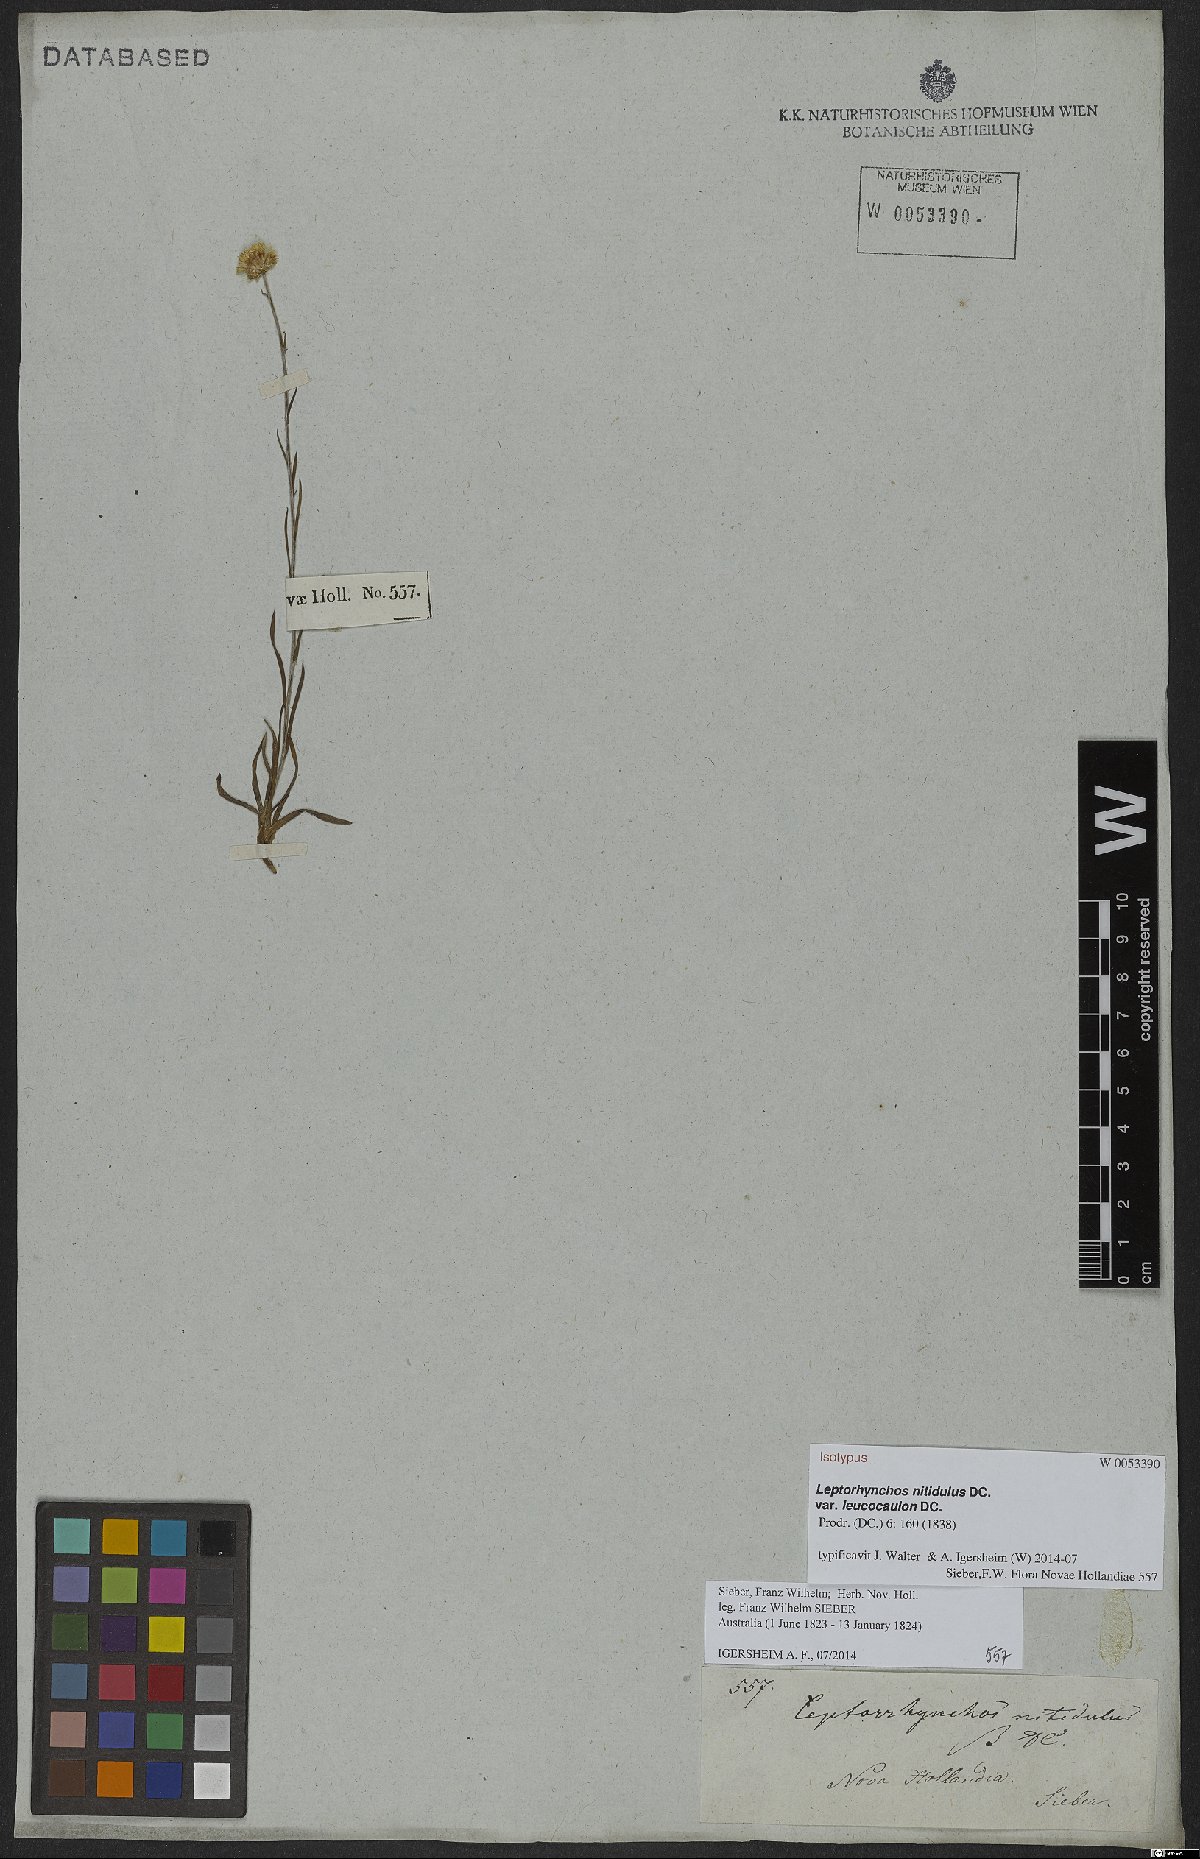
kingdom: Plantae
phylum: Tracheophyta
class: Magnoliopsida
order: Asterales
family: Asteraceae
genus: Leptorhynchos
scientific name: Leptorhynchos nitidulus
